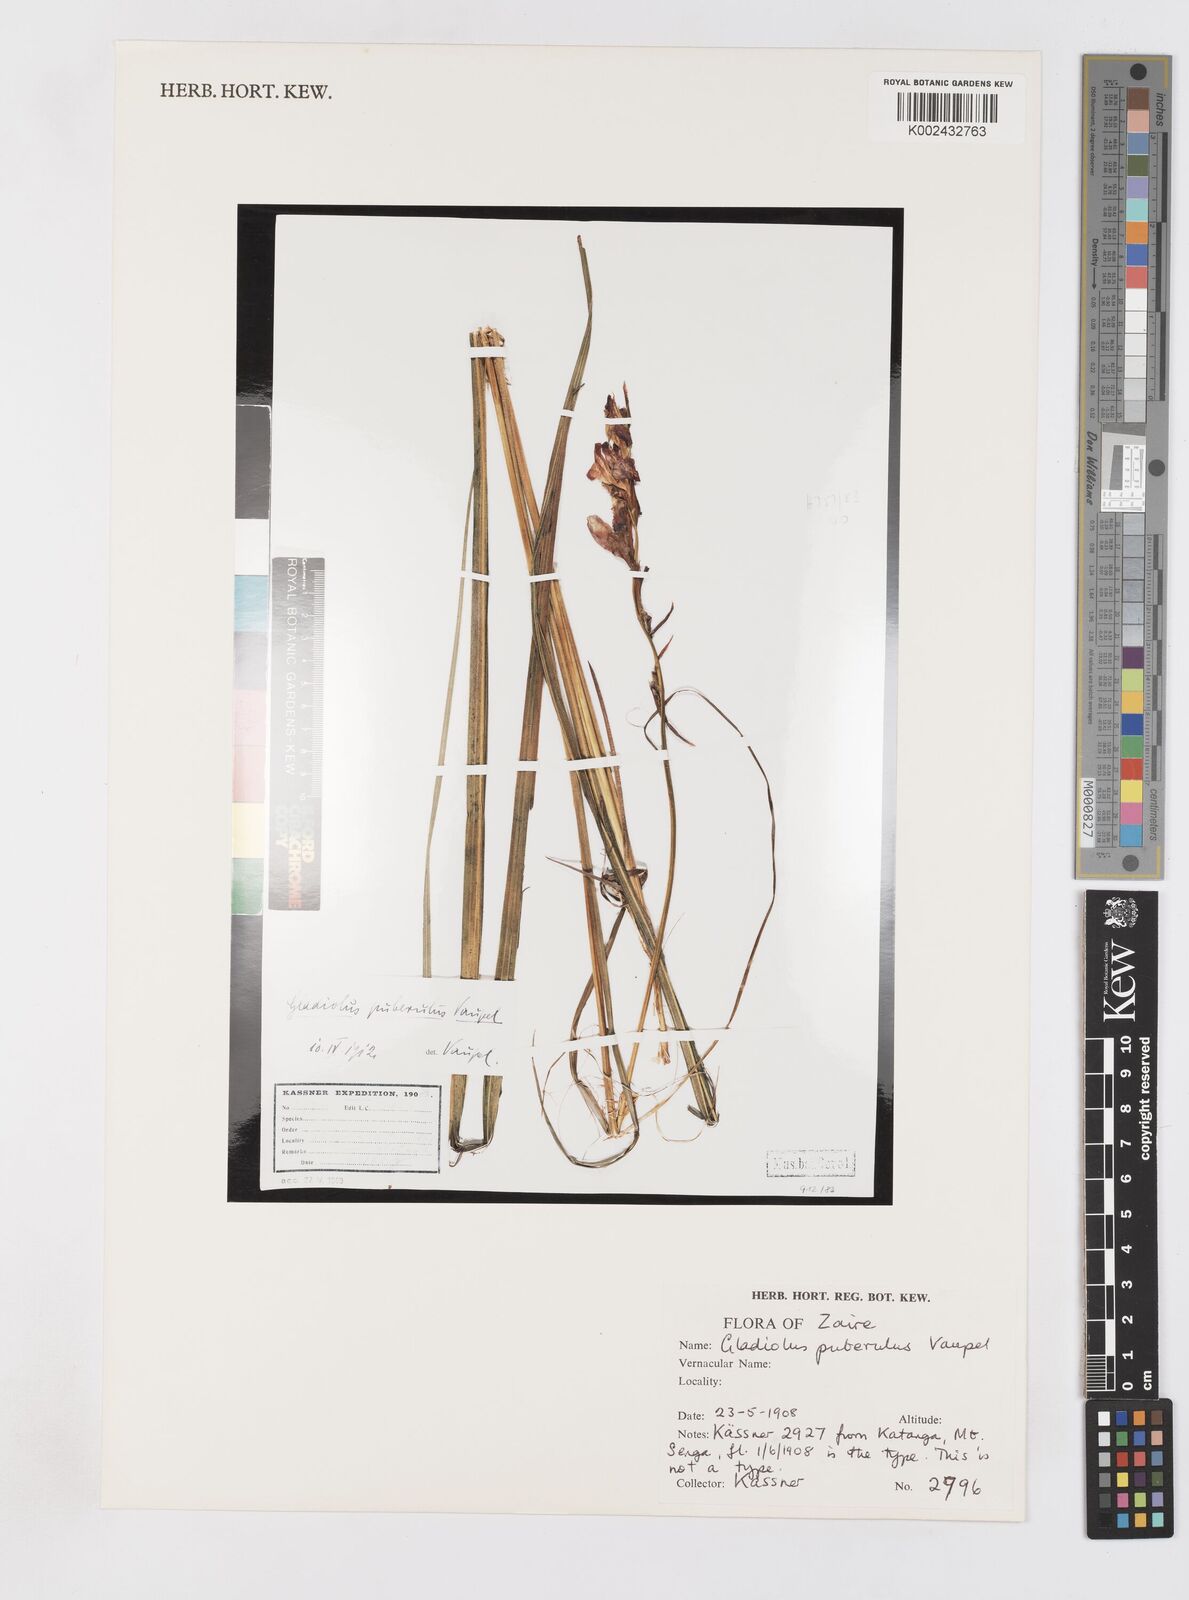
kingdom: Plantae
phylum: Tracheophyta
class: Liliopsida
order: Asparagales
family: Iridaceae
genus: Gladiolus
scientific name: Gladiolus puberulus
